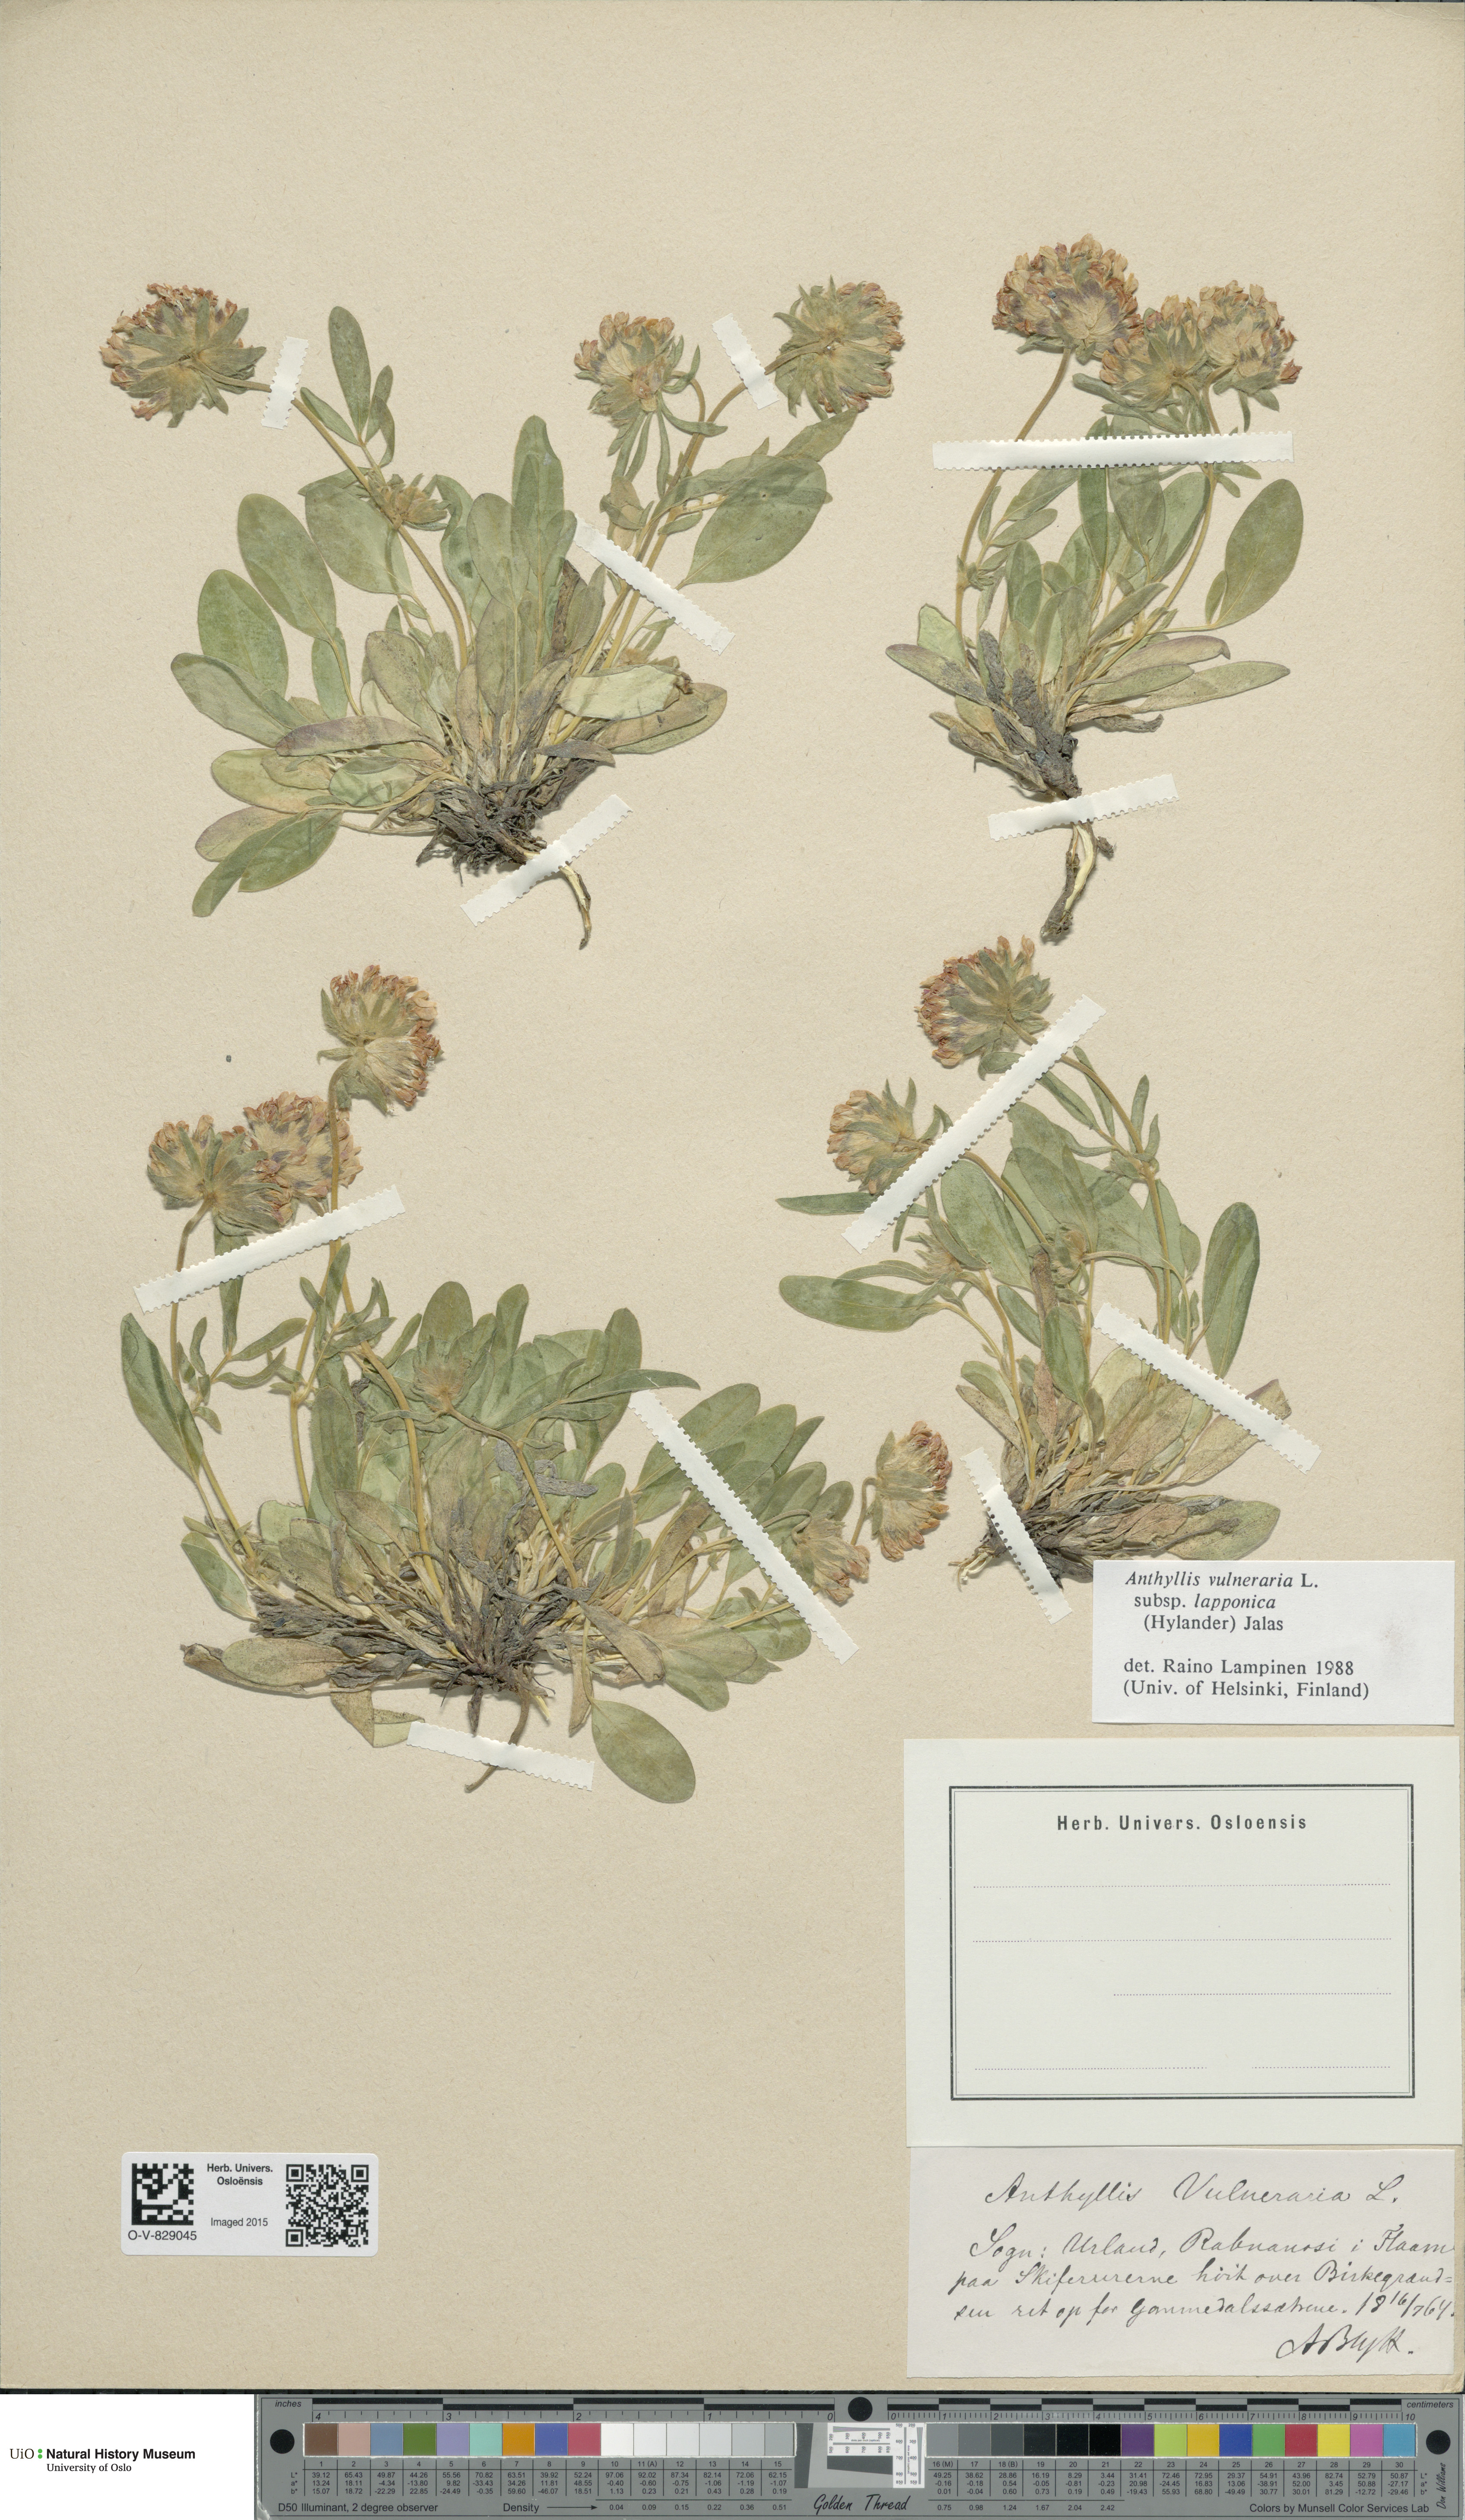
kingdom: Plantae
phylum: Tracheophyta
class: Magnoliopsida
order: Fabales
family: Fabaceae
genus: Anthyllis
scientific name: Anthyllis vulneraria
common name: Kidney vetch
